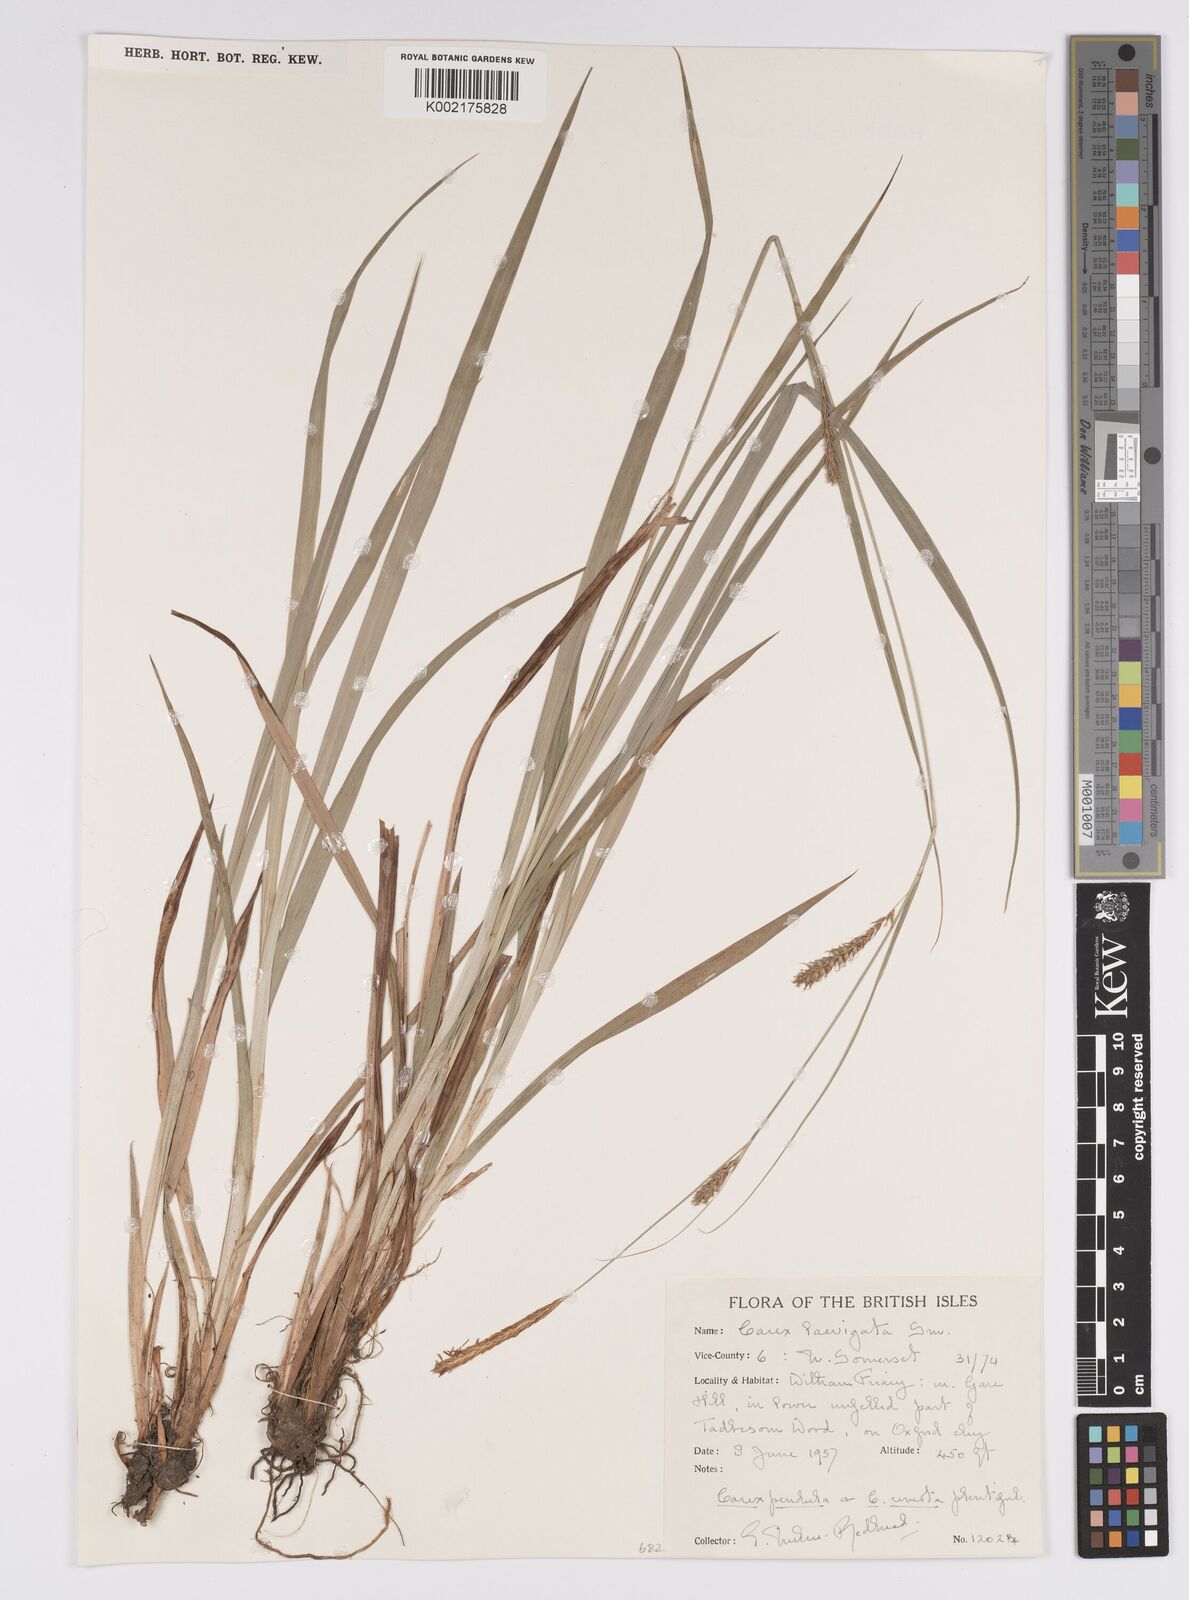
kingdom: Plantae
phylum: Tracheophyta
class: Liliopsida
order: Poales
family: Cyperaceae
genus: Carex
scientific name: Carex laevigata
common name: Smooth-stalked sedge
